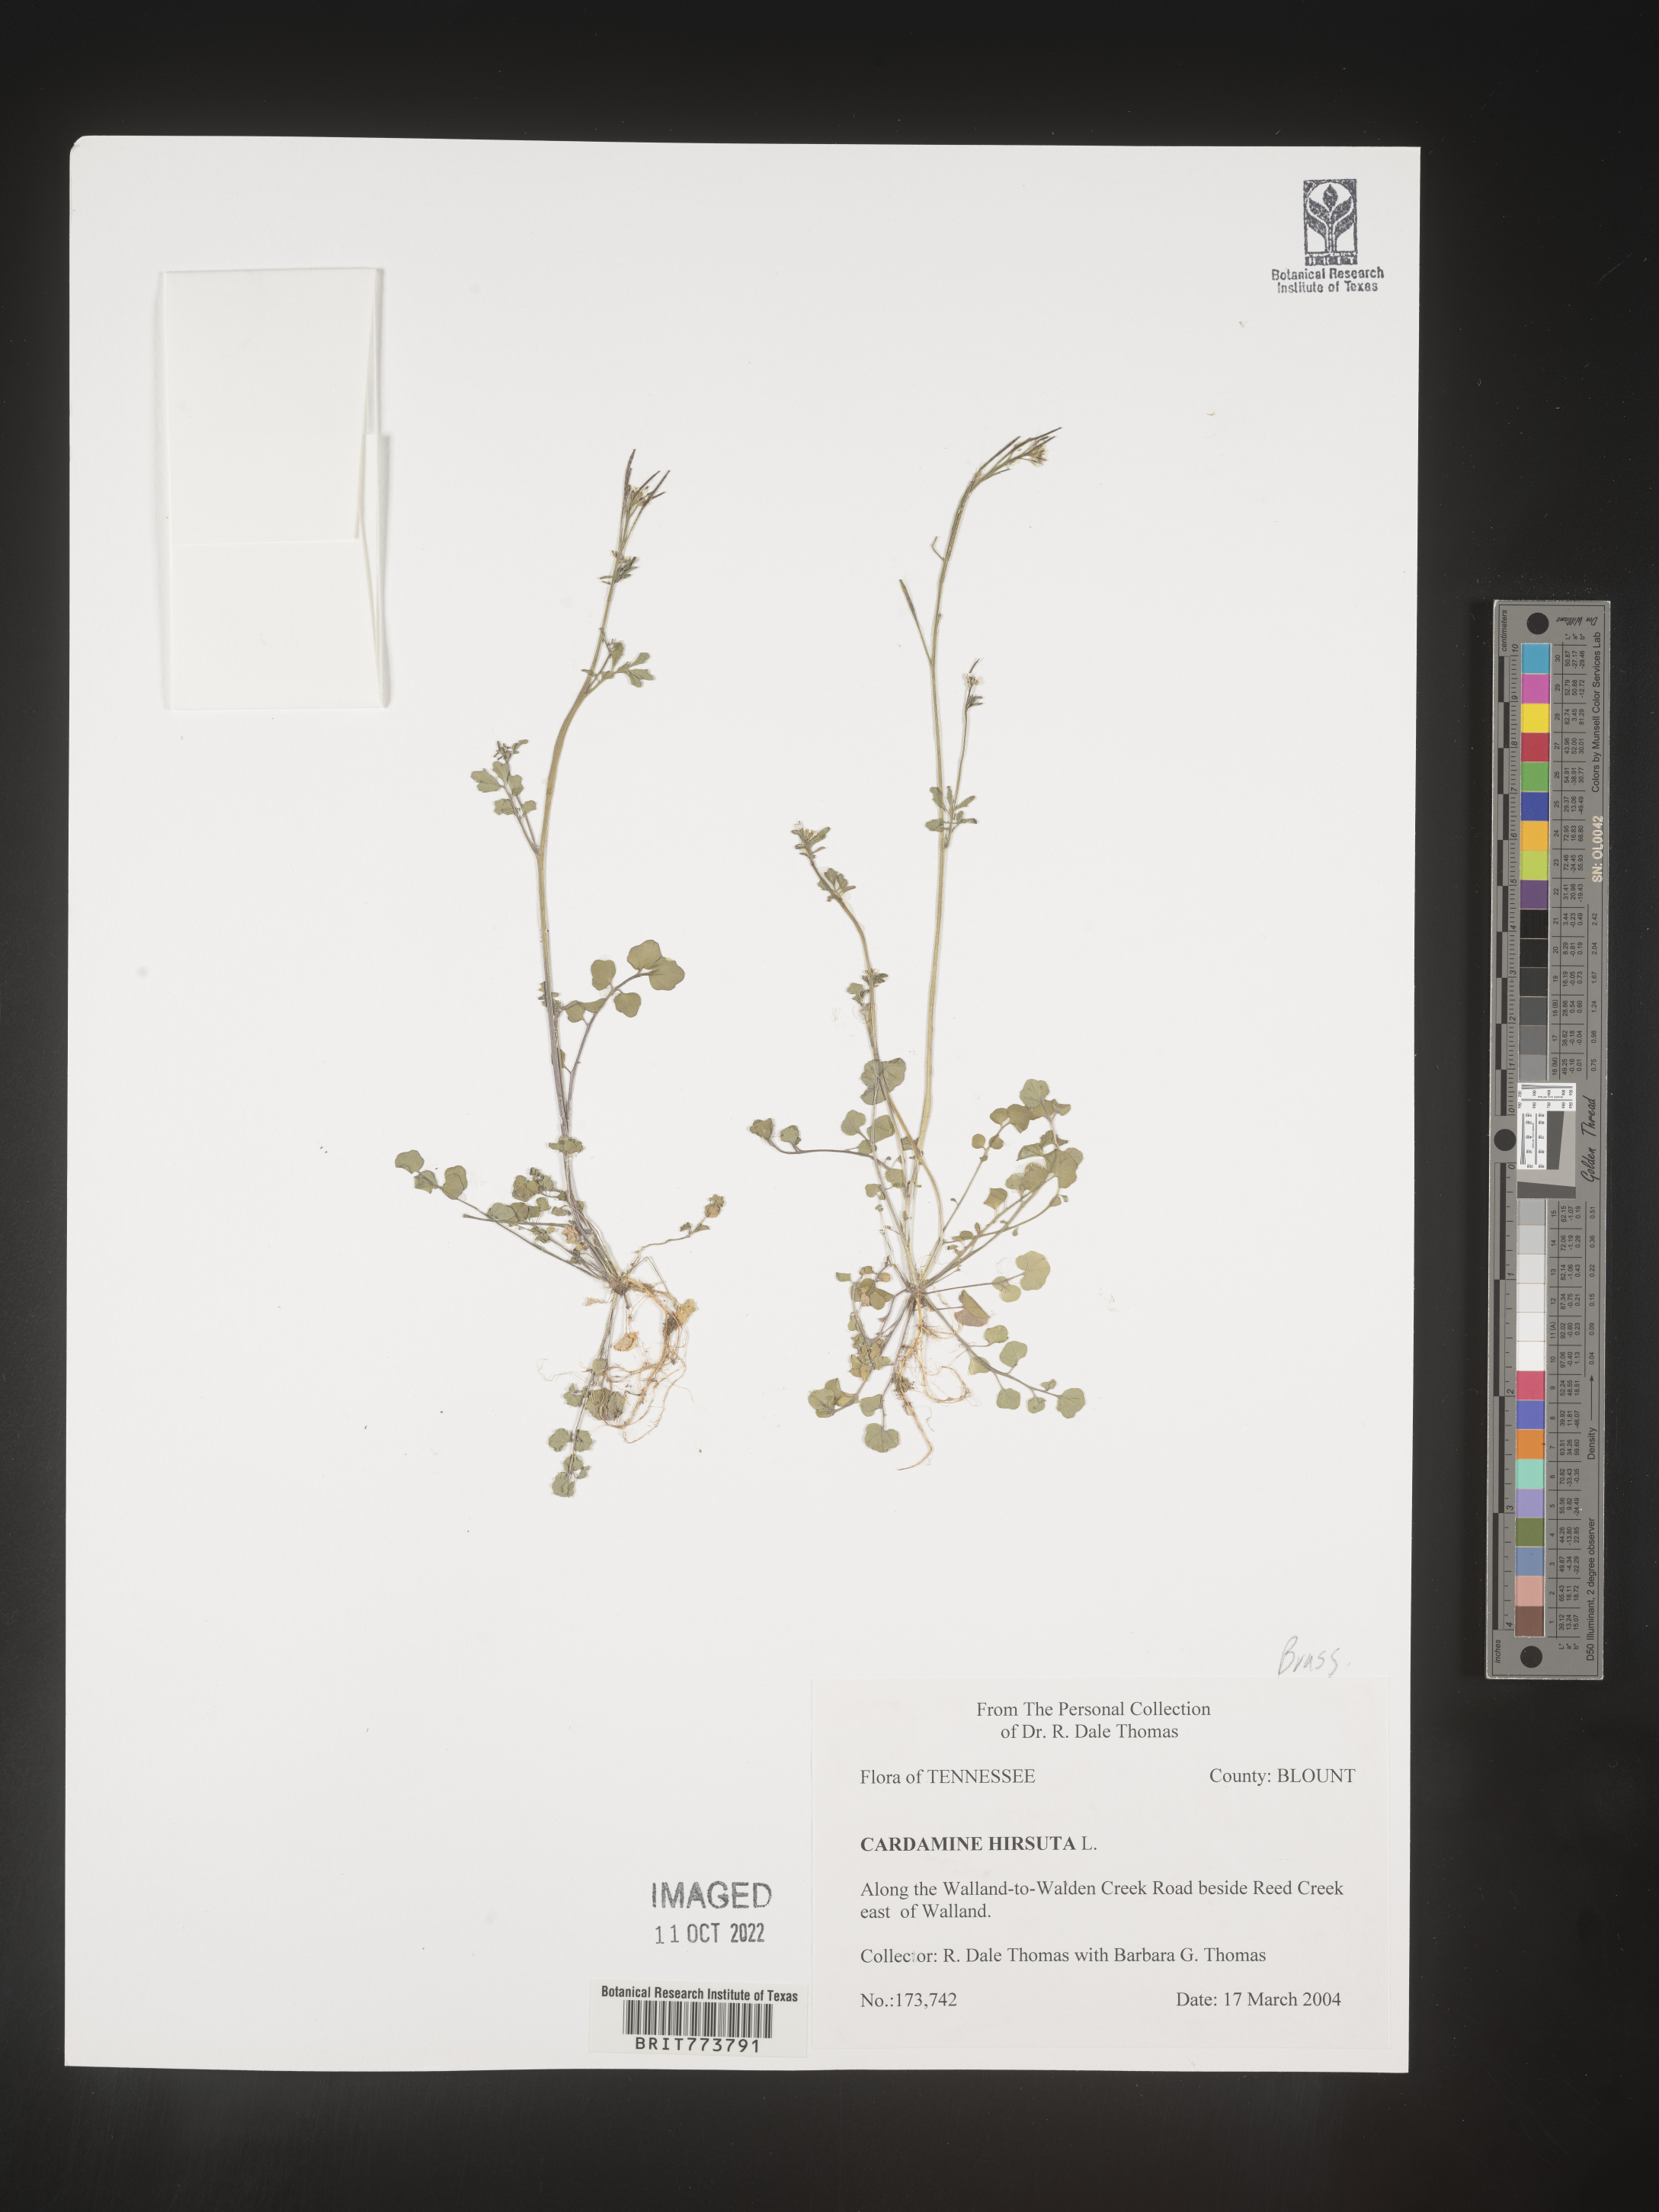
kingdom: Plantae
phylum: Tracheophyta
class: Magnoliopsida
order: Brassicales
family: Brassicaceae
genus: Cardamine
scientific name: Cardamine hirsuta
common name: Hairy bittercress
